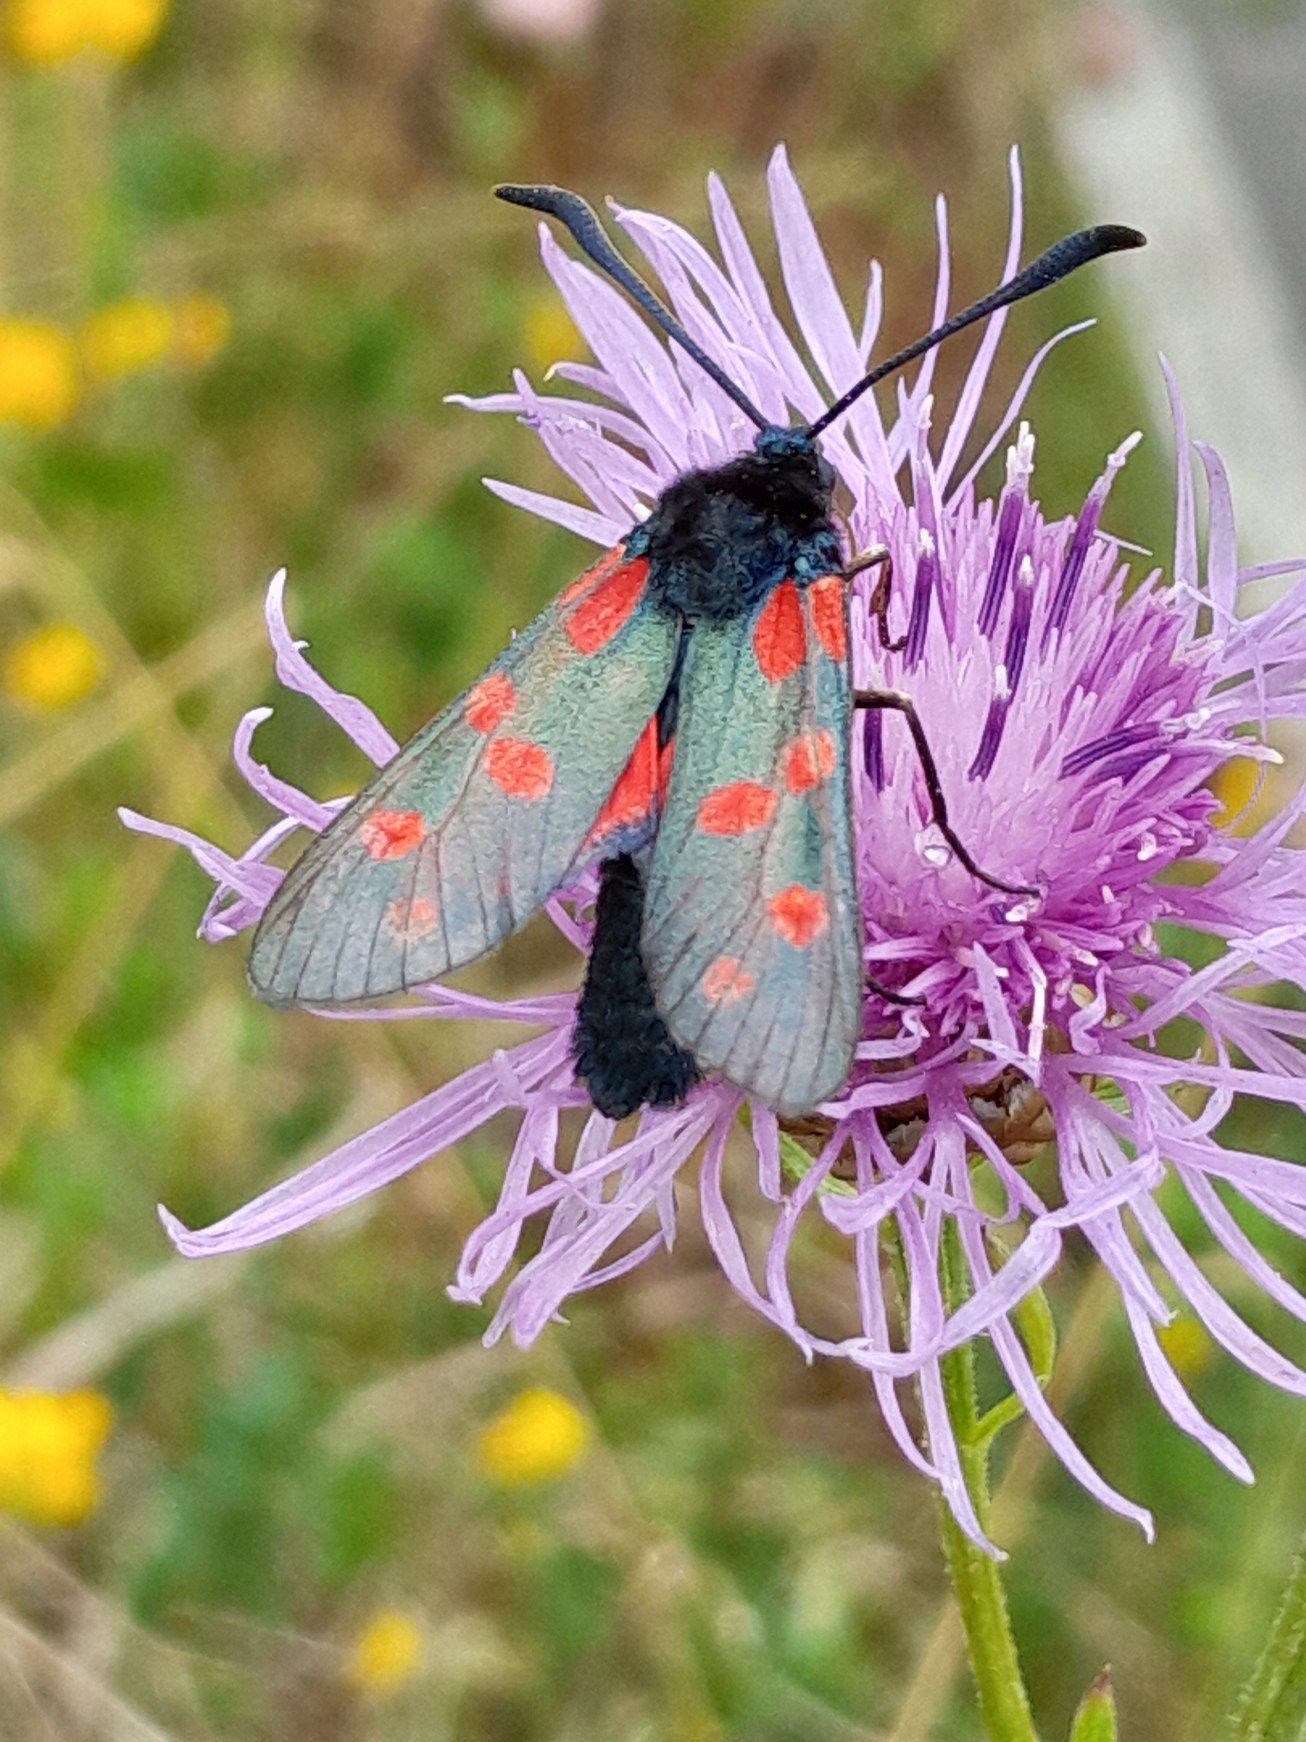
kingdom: Animalia
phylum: Arthropoda
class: Insecta
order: Lepidoptera
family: Zygaenidae
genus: Zygaena
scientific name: Zygaena filipendulae
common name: Seksplettet køllesværmer
